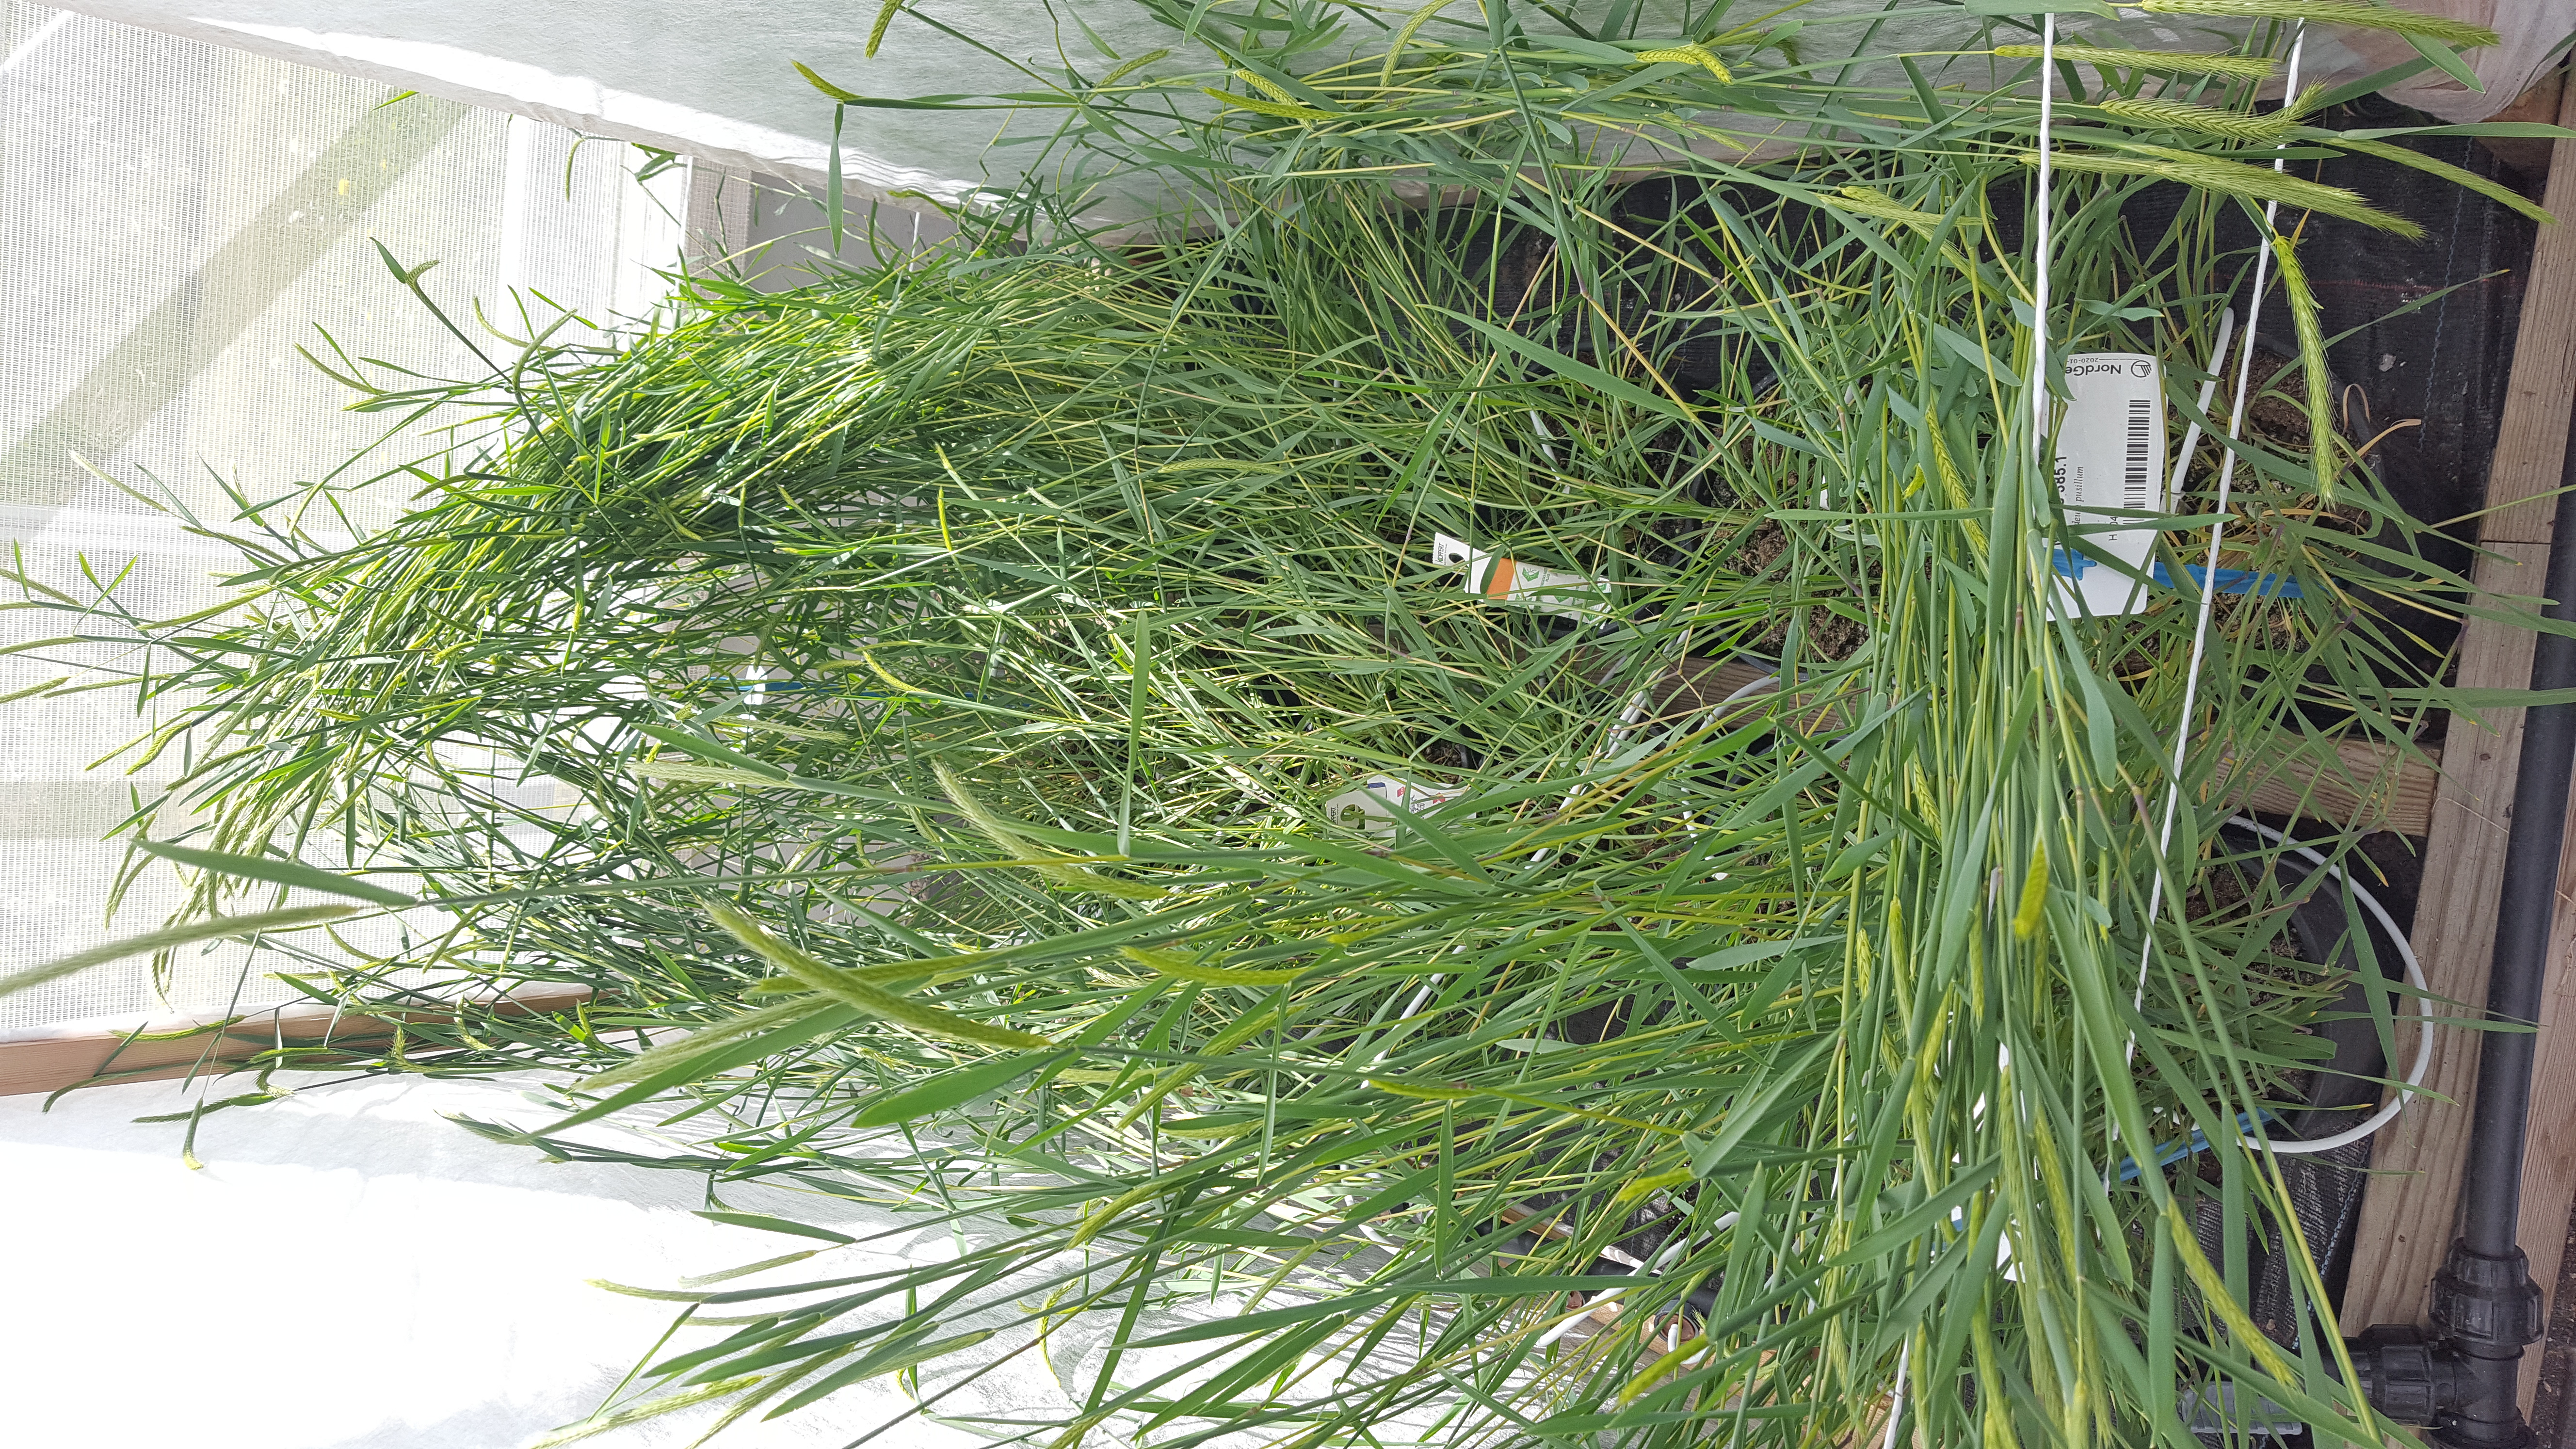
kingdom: Plantae
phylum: Tracheophyta
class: Liliopsida
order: Poales
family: Poaceae
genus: Hordeum
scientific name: Hordeum pusillum
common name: Little barley
